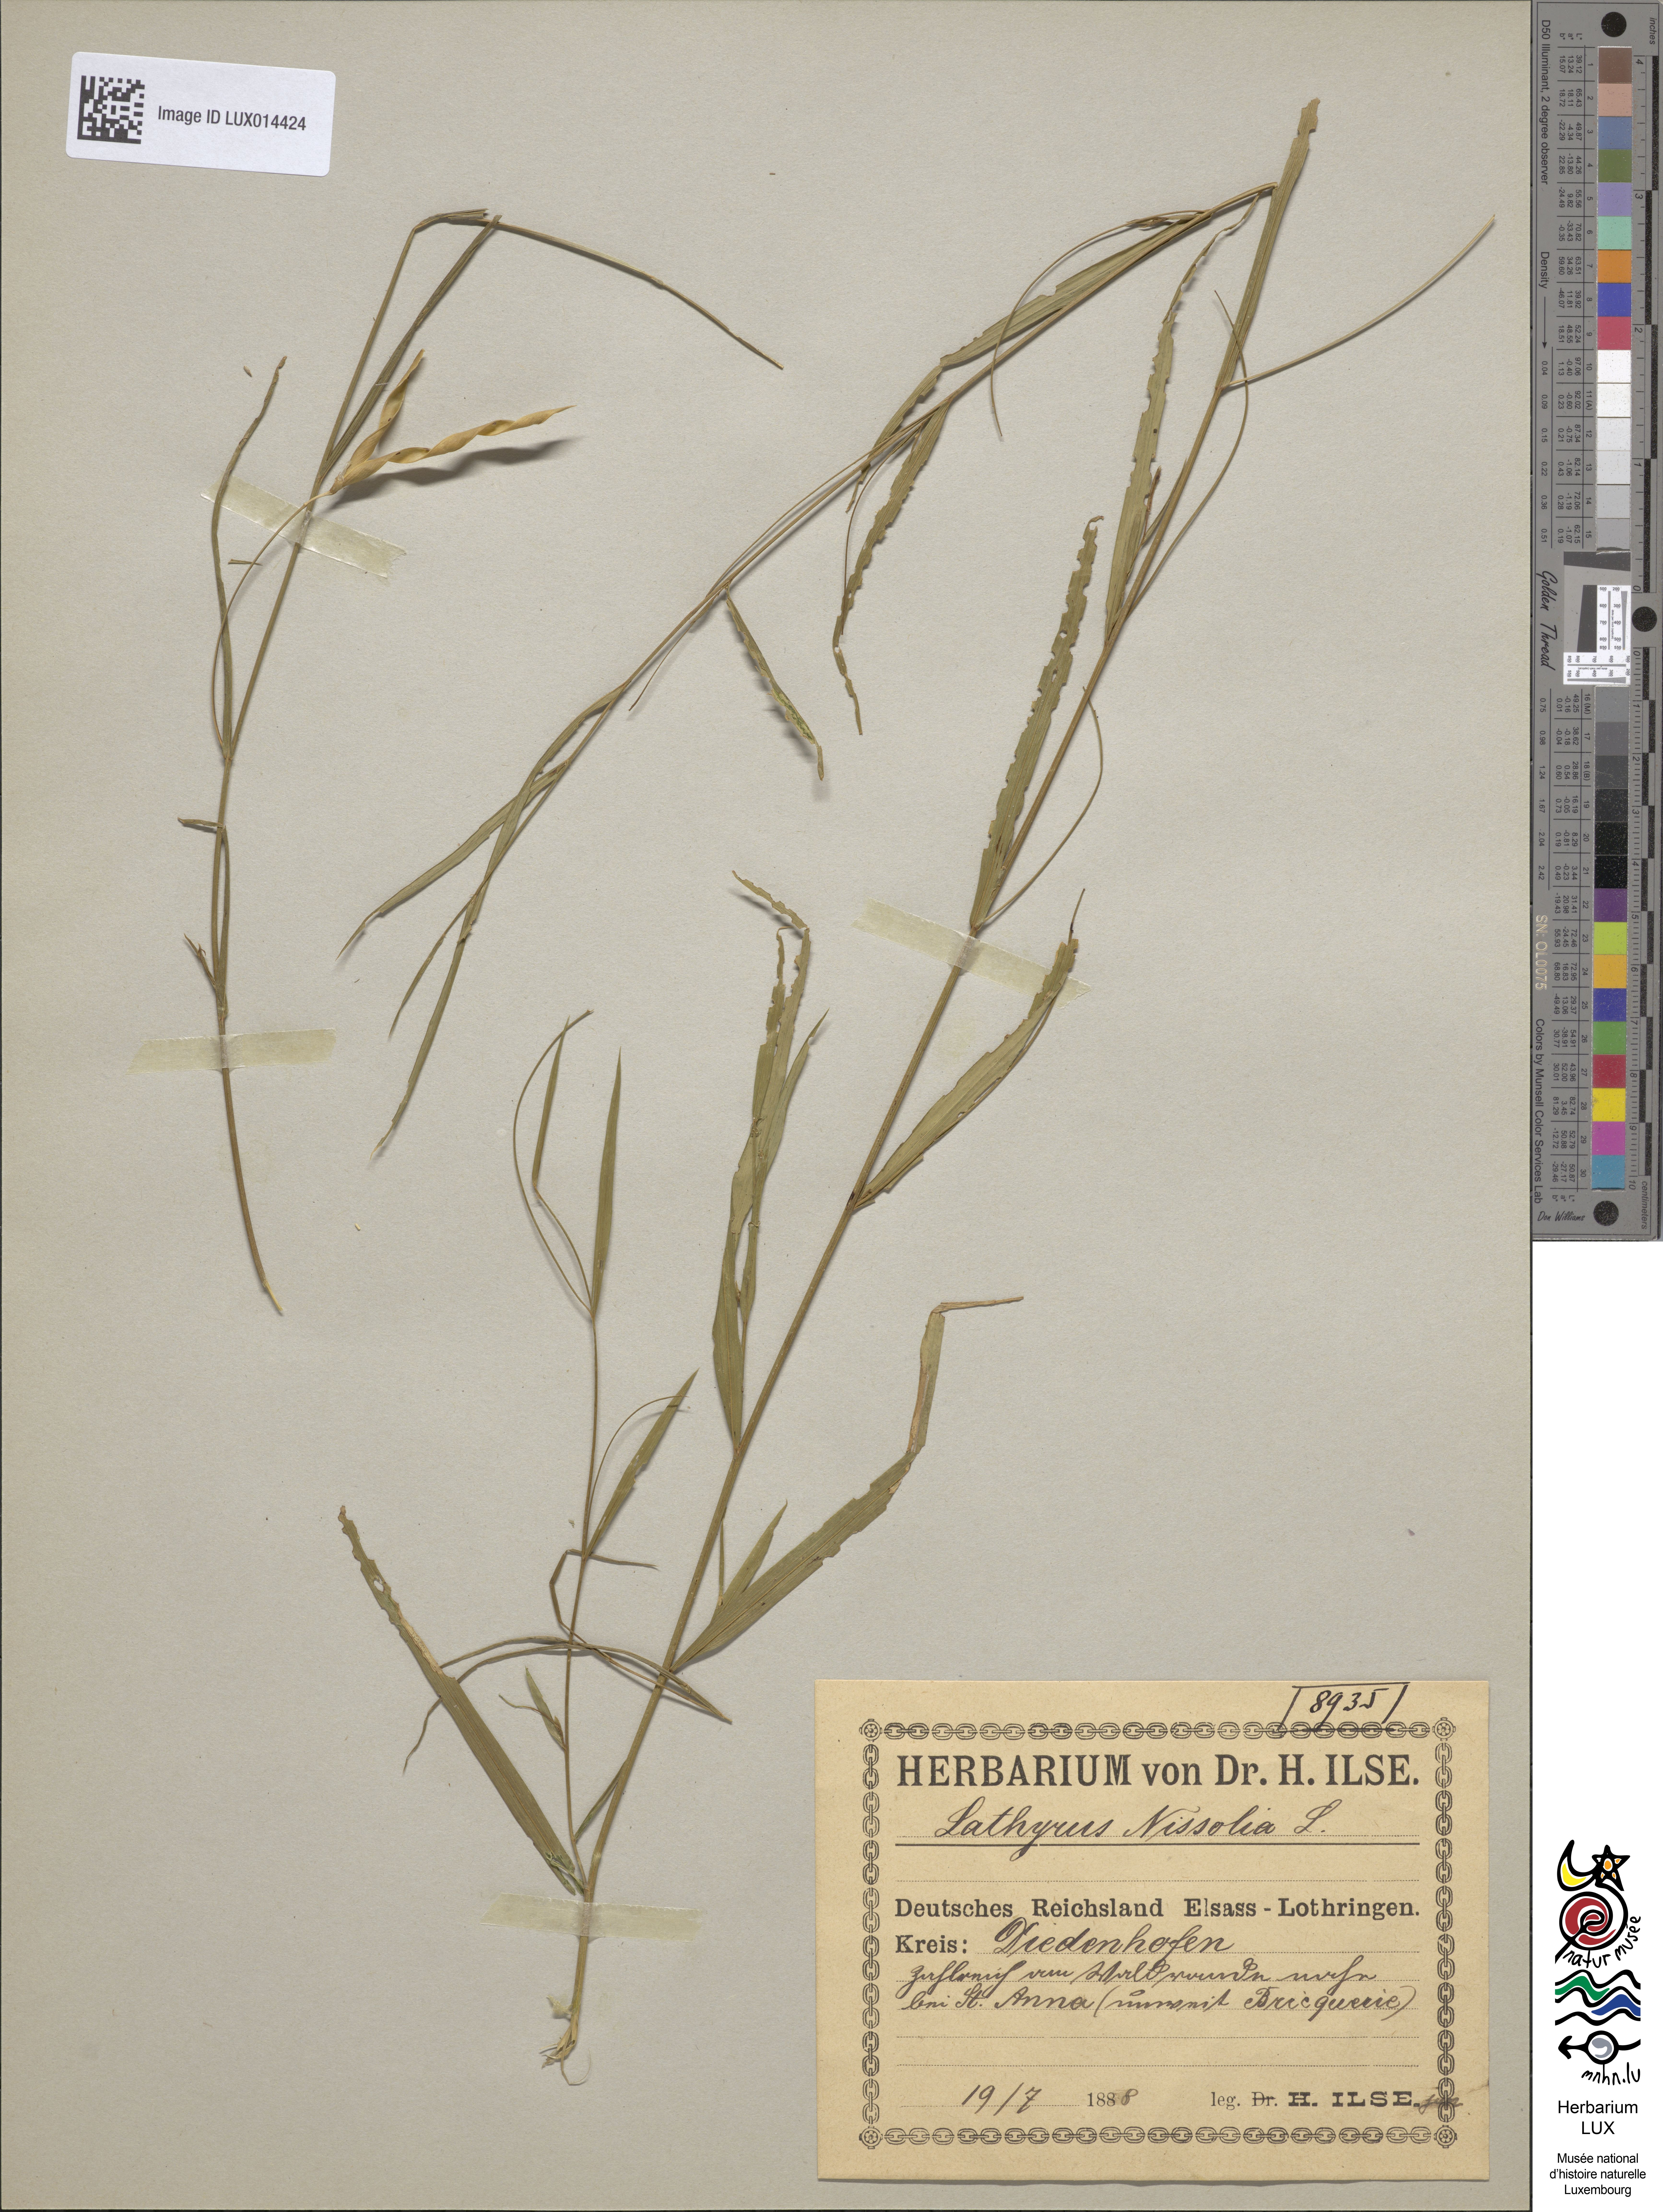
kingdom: Plantae
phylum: Tracheophyta
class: Magnoliopsida
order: Fabales
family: Fabaceae
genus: Lathyrus
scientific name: Lathyrus nissolia
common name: Grass vetchling
